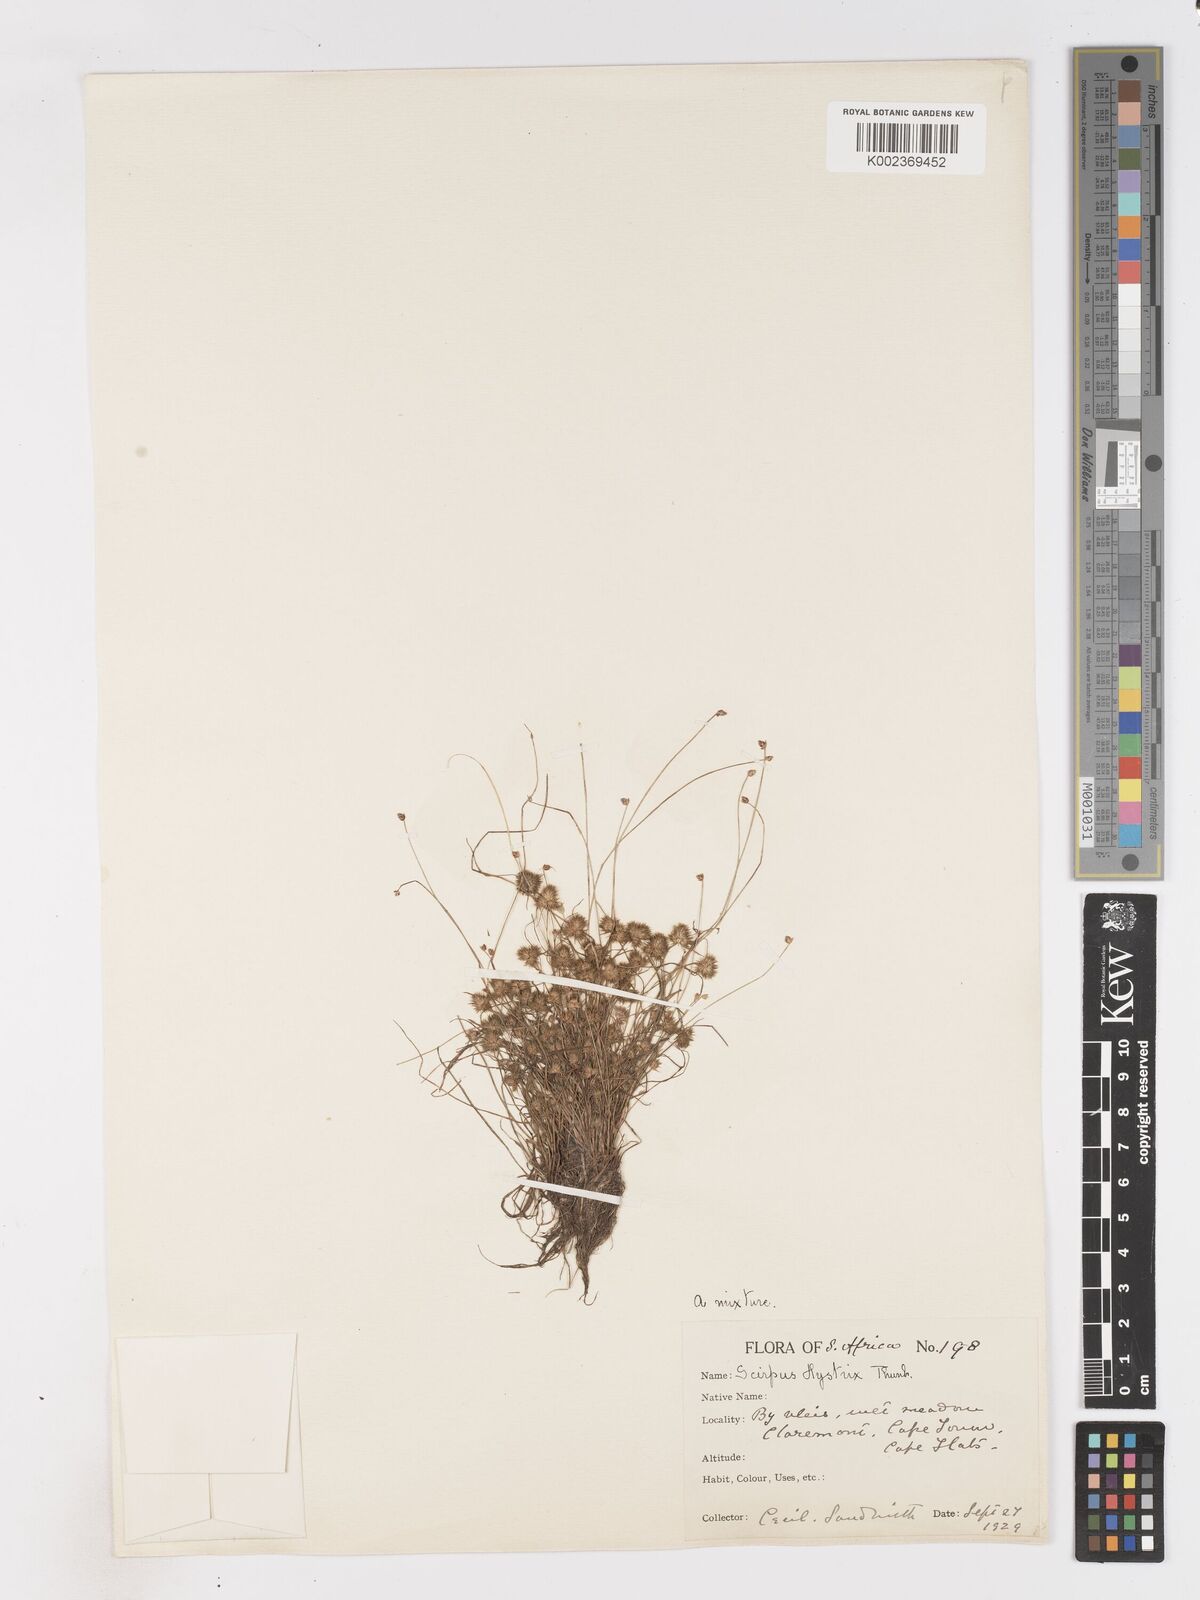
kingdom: Plantae
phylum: Tracheophyta
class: Liliopsida
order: Poales
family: Cyperaceae
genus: Isolepis
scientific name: Isolepis hystrix
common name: Bottlebrush bulrush
